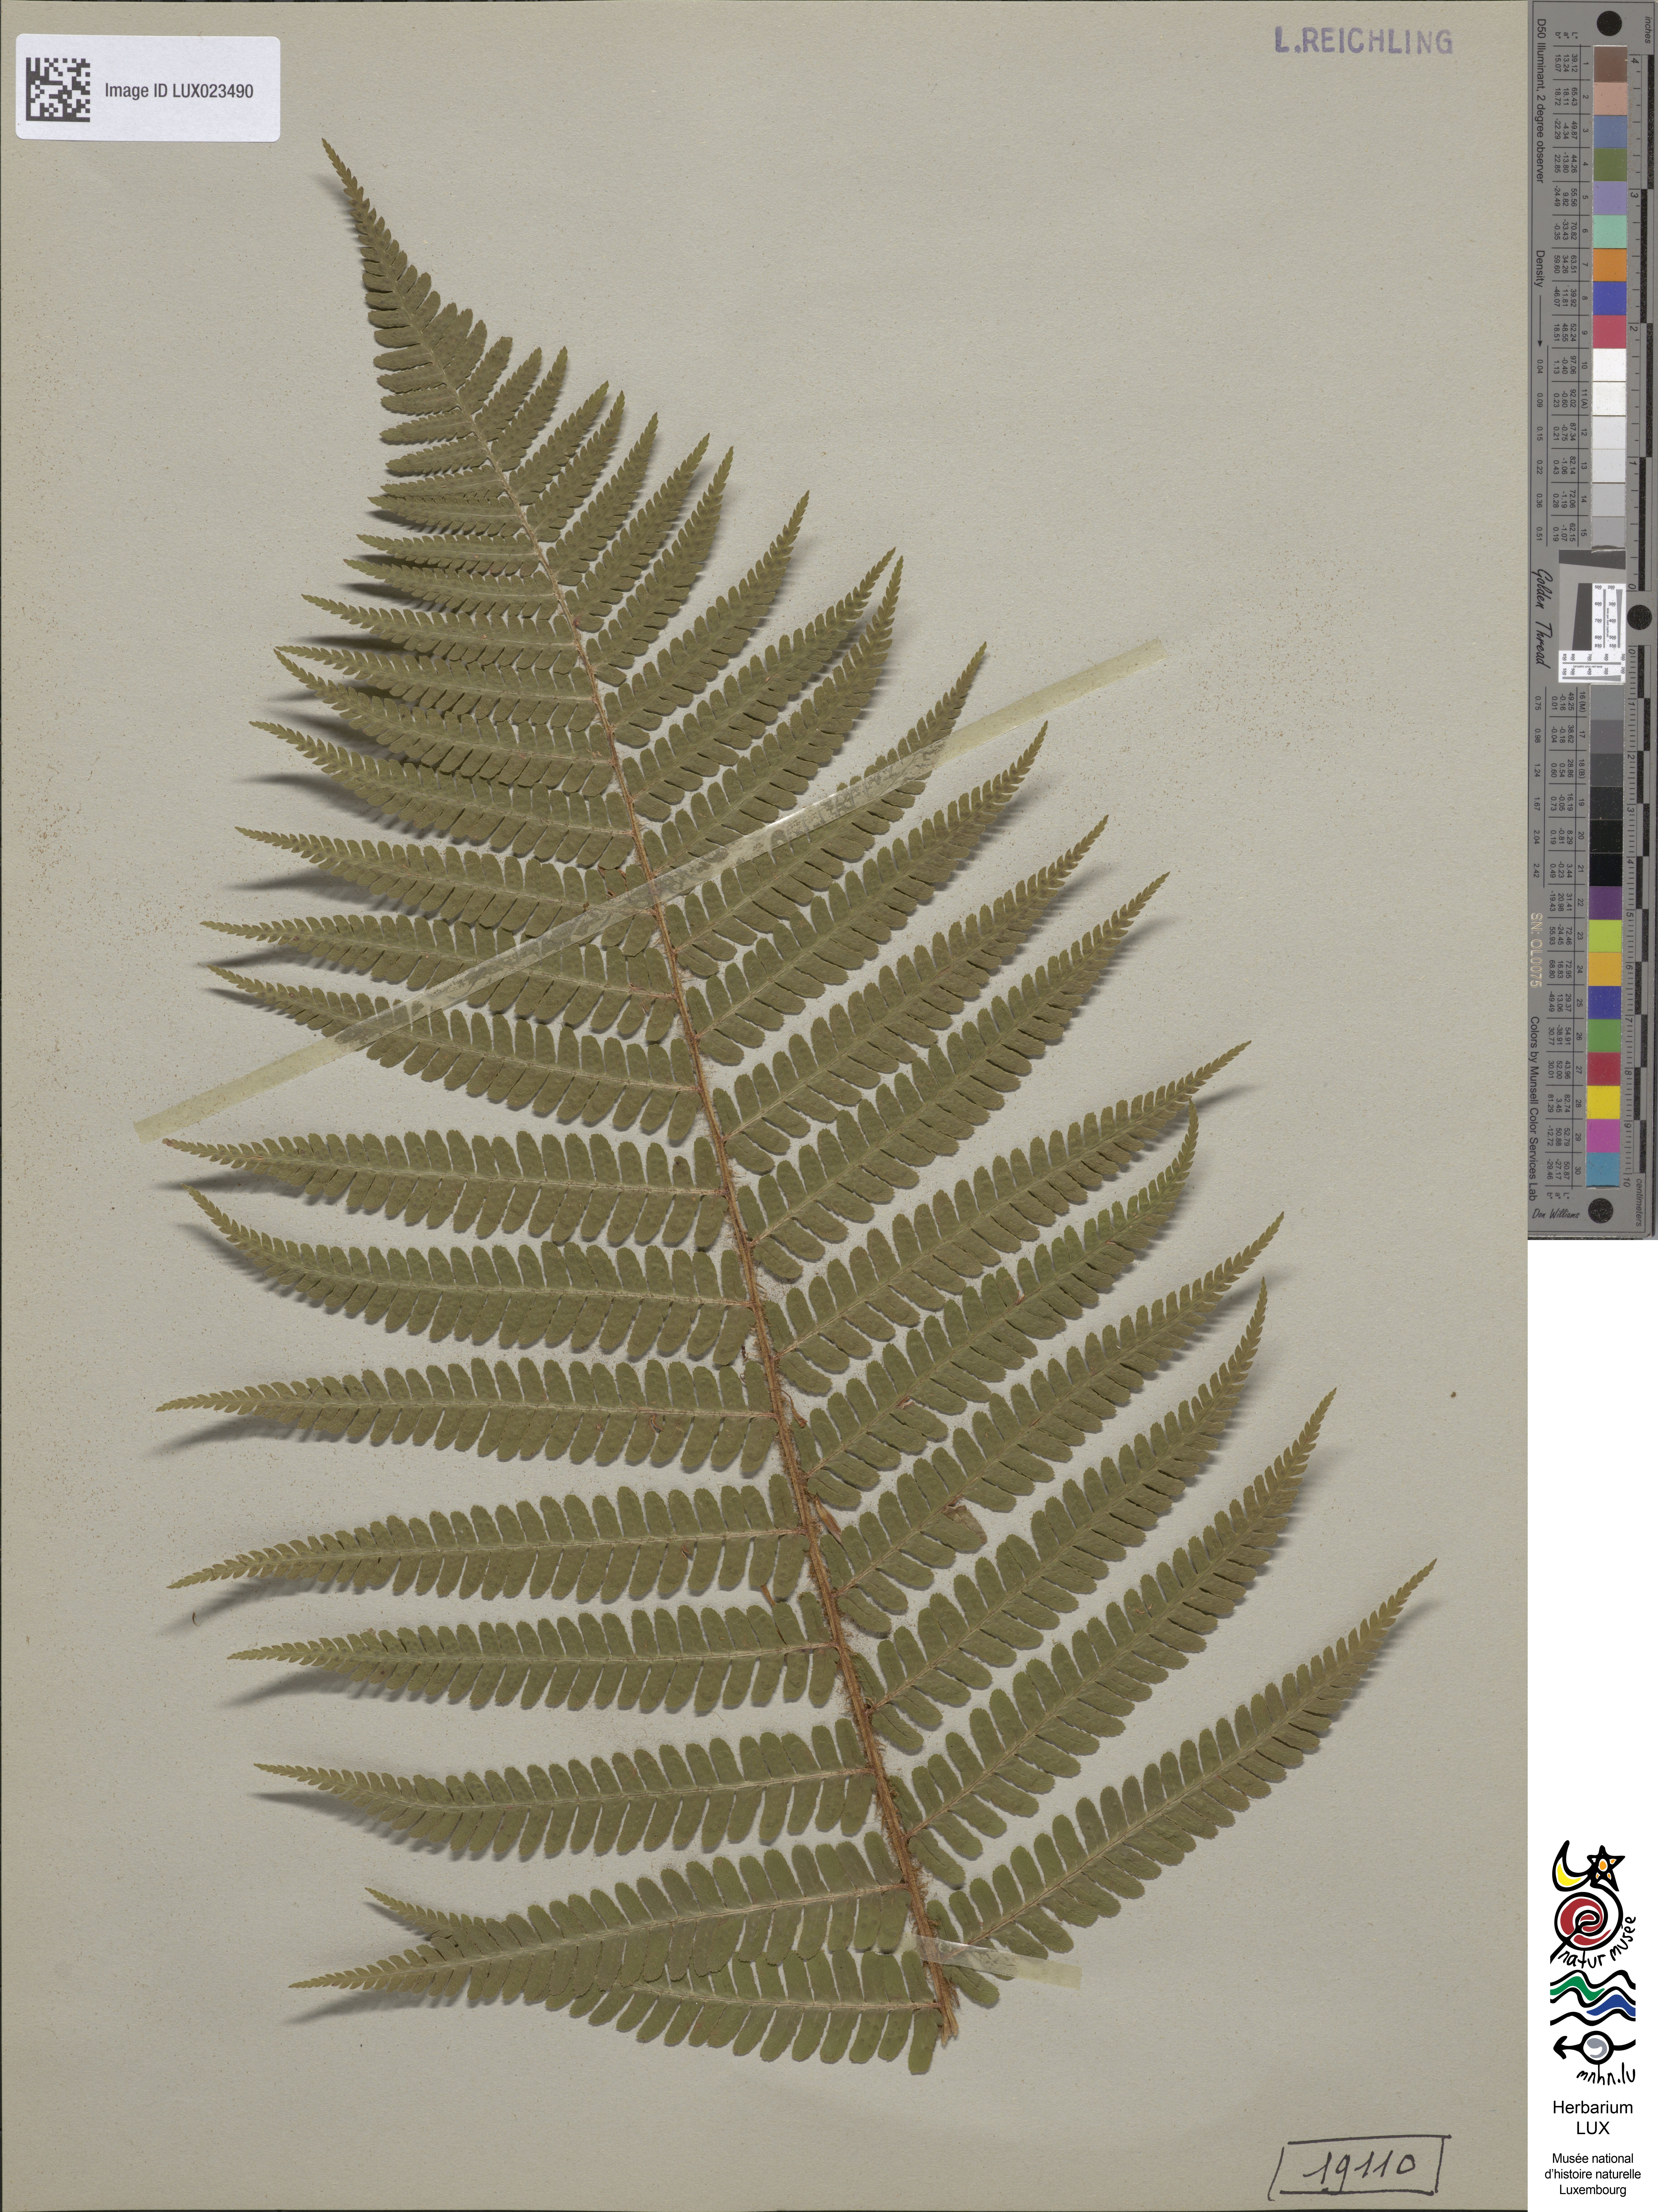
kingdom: Plantae
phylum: Tracheophyta
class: Polypodiopsida
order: Polypodiales
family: Dryopteridaceae
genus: Dryopteris
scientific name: Dryopteris borreri
